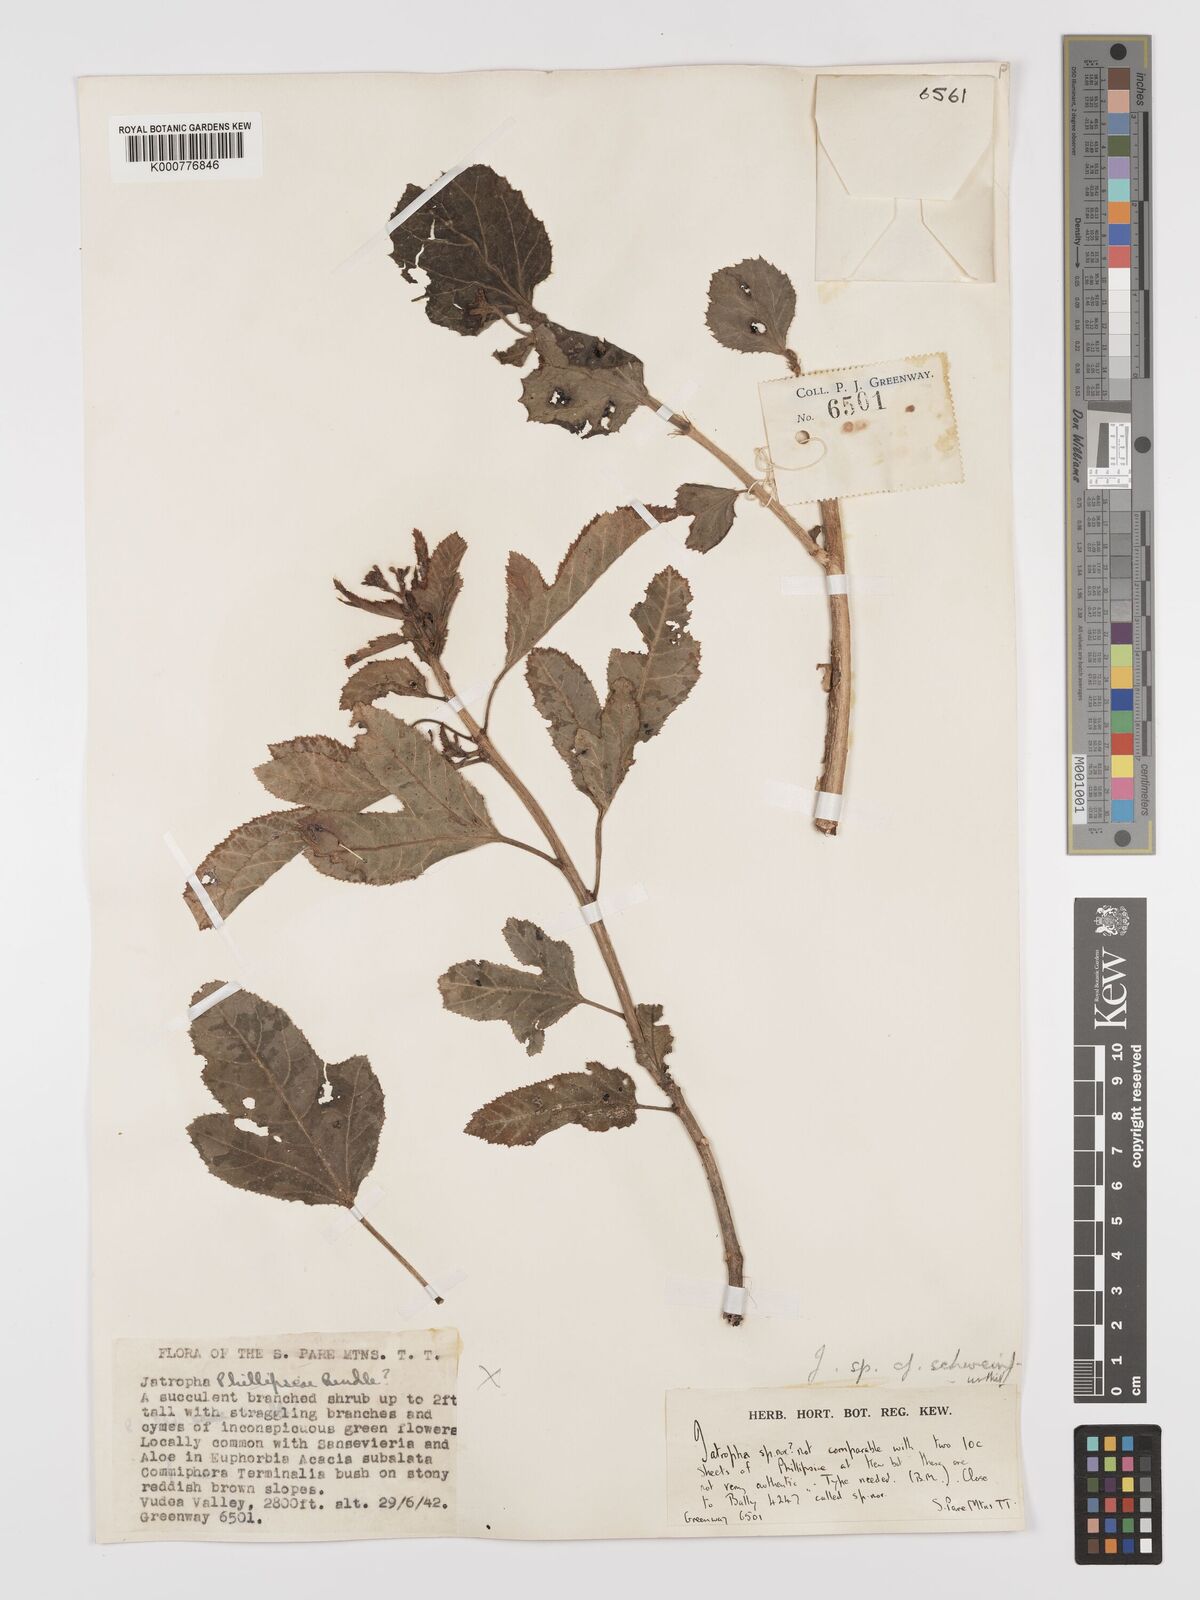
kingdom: Plantae
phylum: Tracheophyta
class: Magnoliopsida
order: Malpighiales
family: Euphorbiaceae
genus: Jatropha
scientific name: Jatropha schweinfurthii
